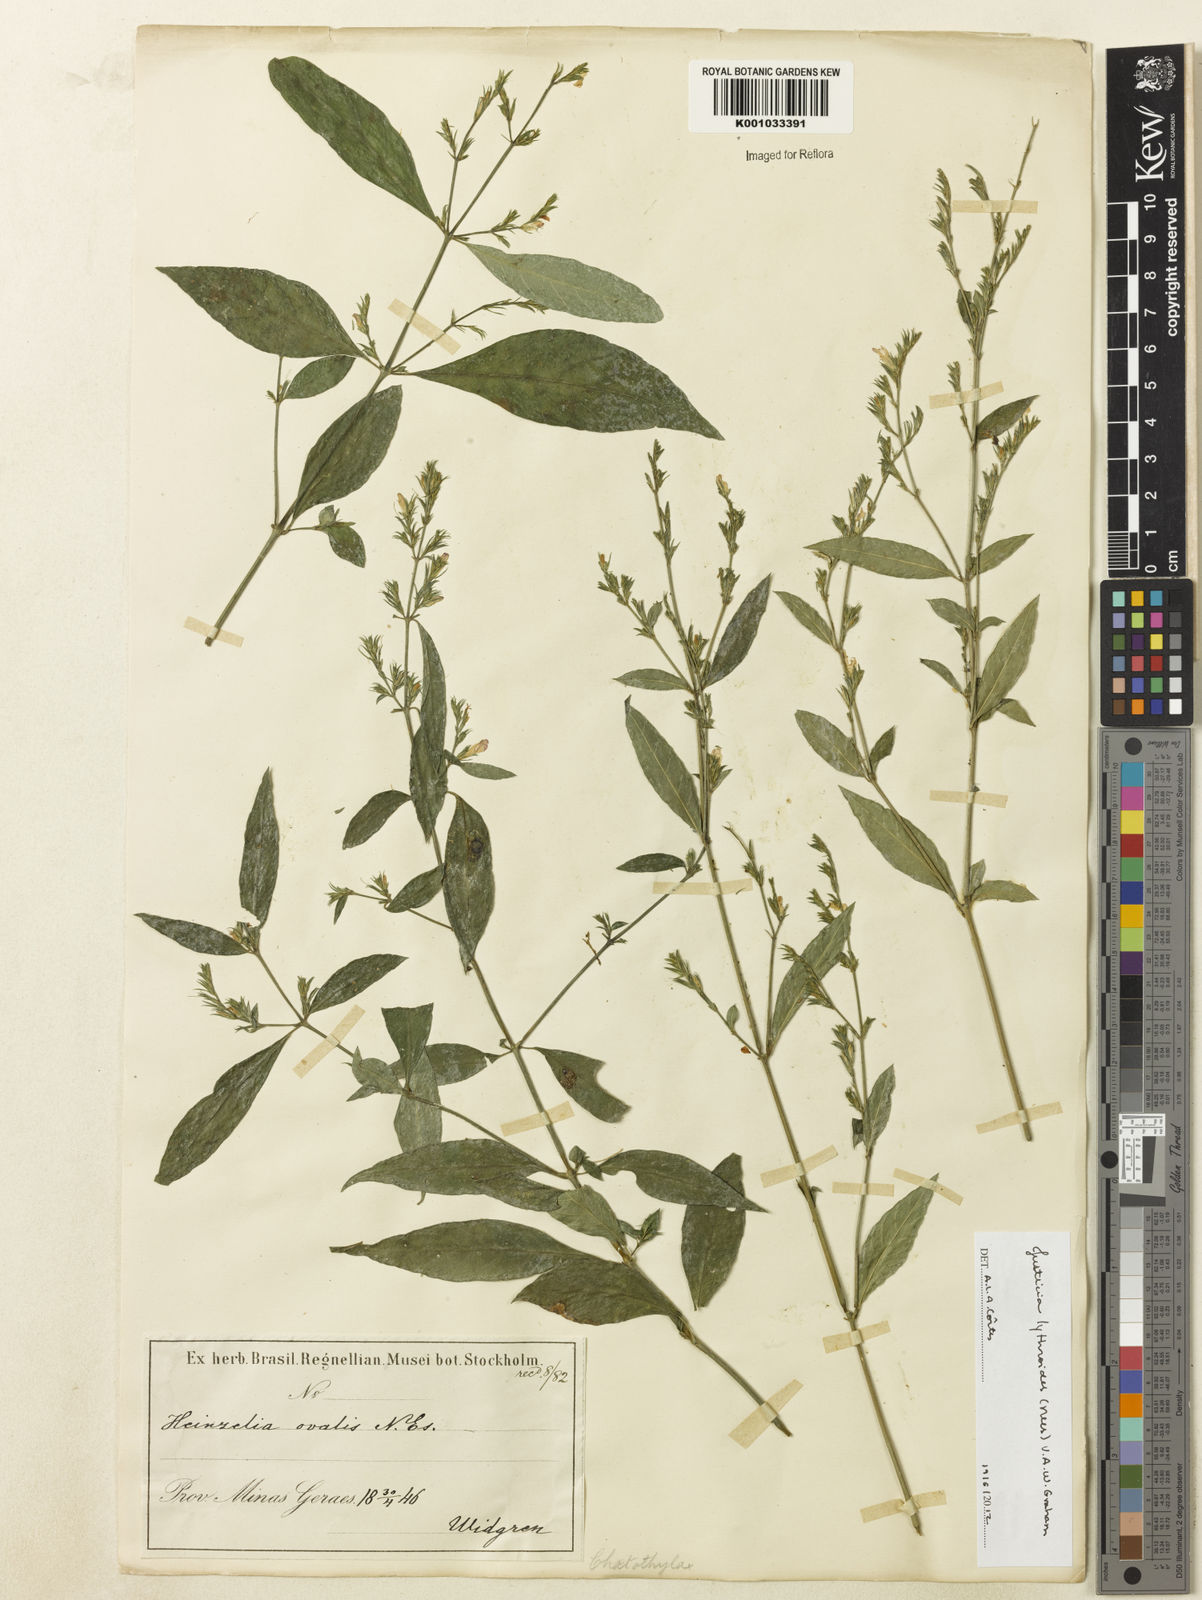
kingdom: Plantae
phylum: Tracheophyta
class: Magnoliopsida
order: Lamiales
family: Acanthaceae
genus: Justicia
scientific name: Justicia lythroides
